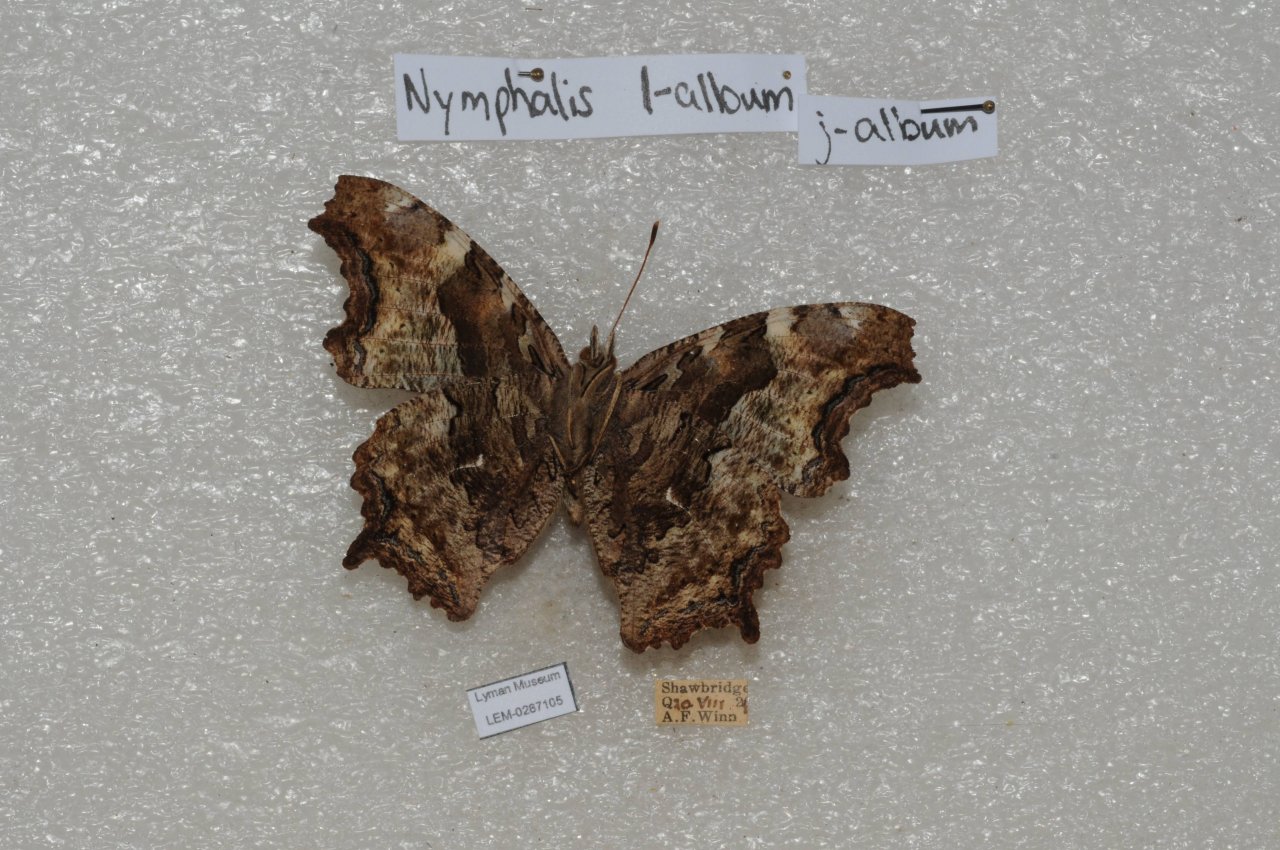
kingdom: Animalia
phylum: Arthropoda
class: Insecta
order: Lepidoptera
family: Nymphalidae
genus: Polygonia
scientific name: Polygonia vaualbum
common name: Compton Tortoiseshell
